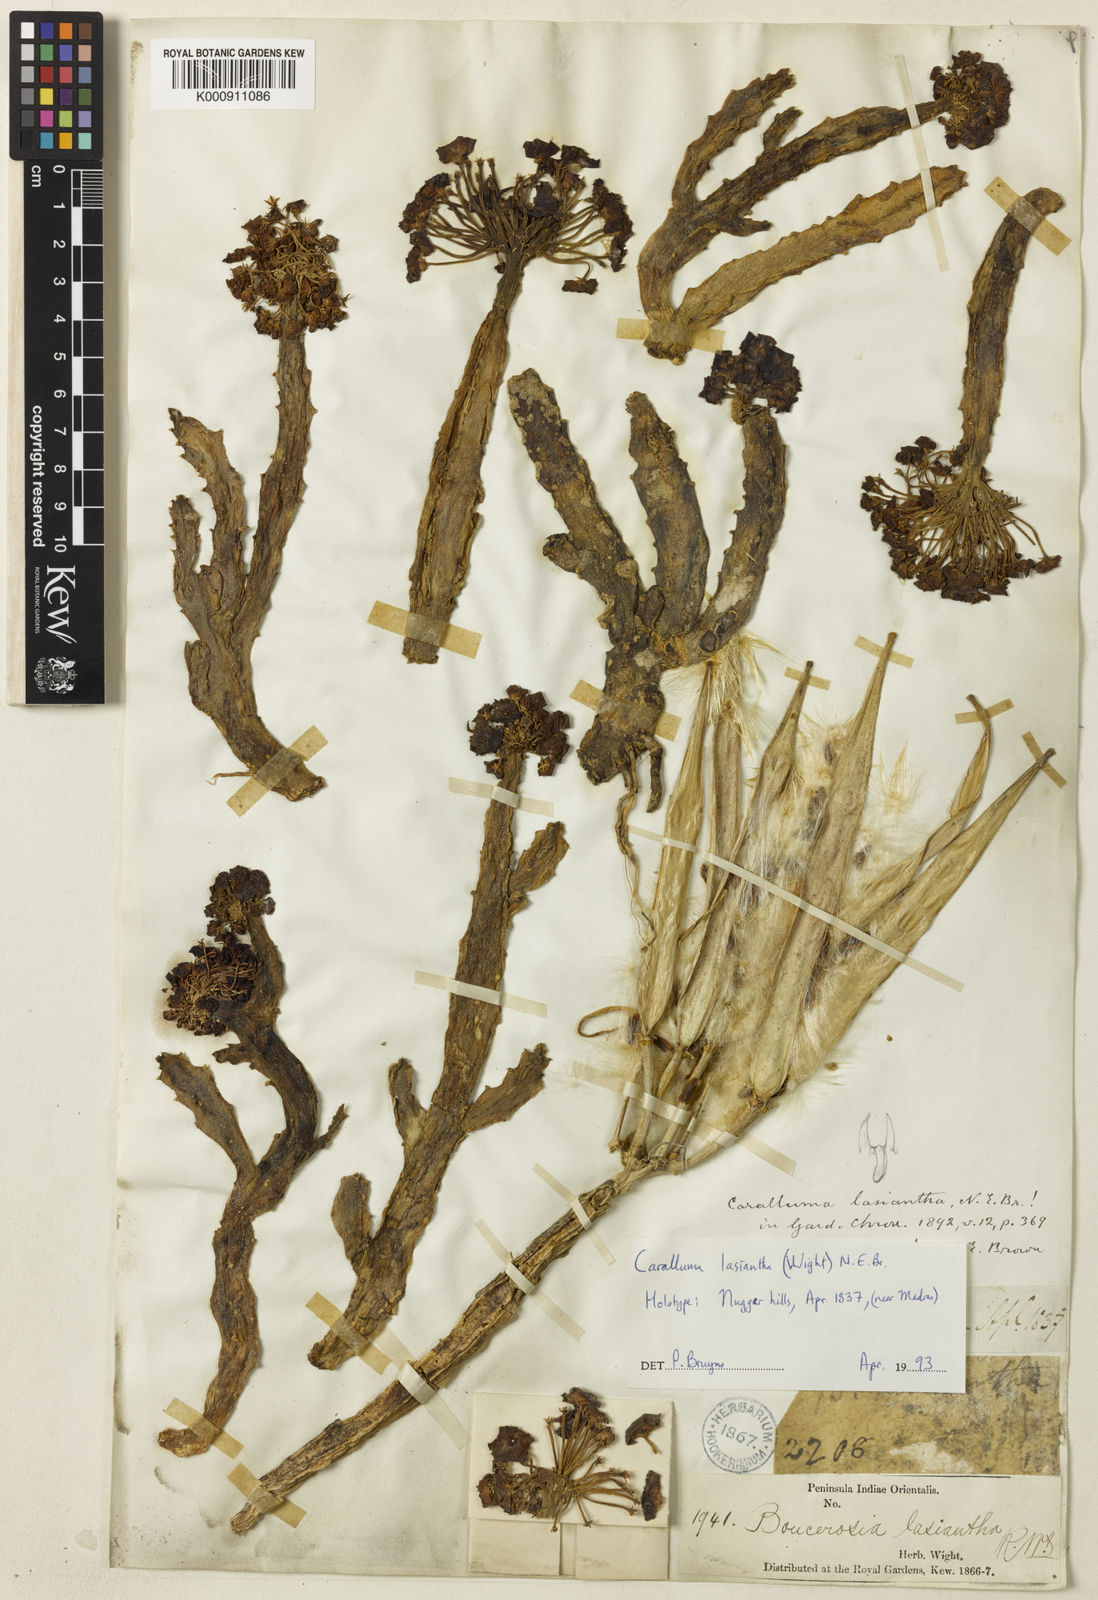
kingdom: Plantae
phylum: Tracheophyta
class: Magnoliopsida
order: Gentianales
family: Apocynaceae
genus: Ceropegia
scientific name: Ceropegia umbellata
